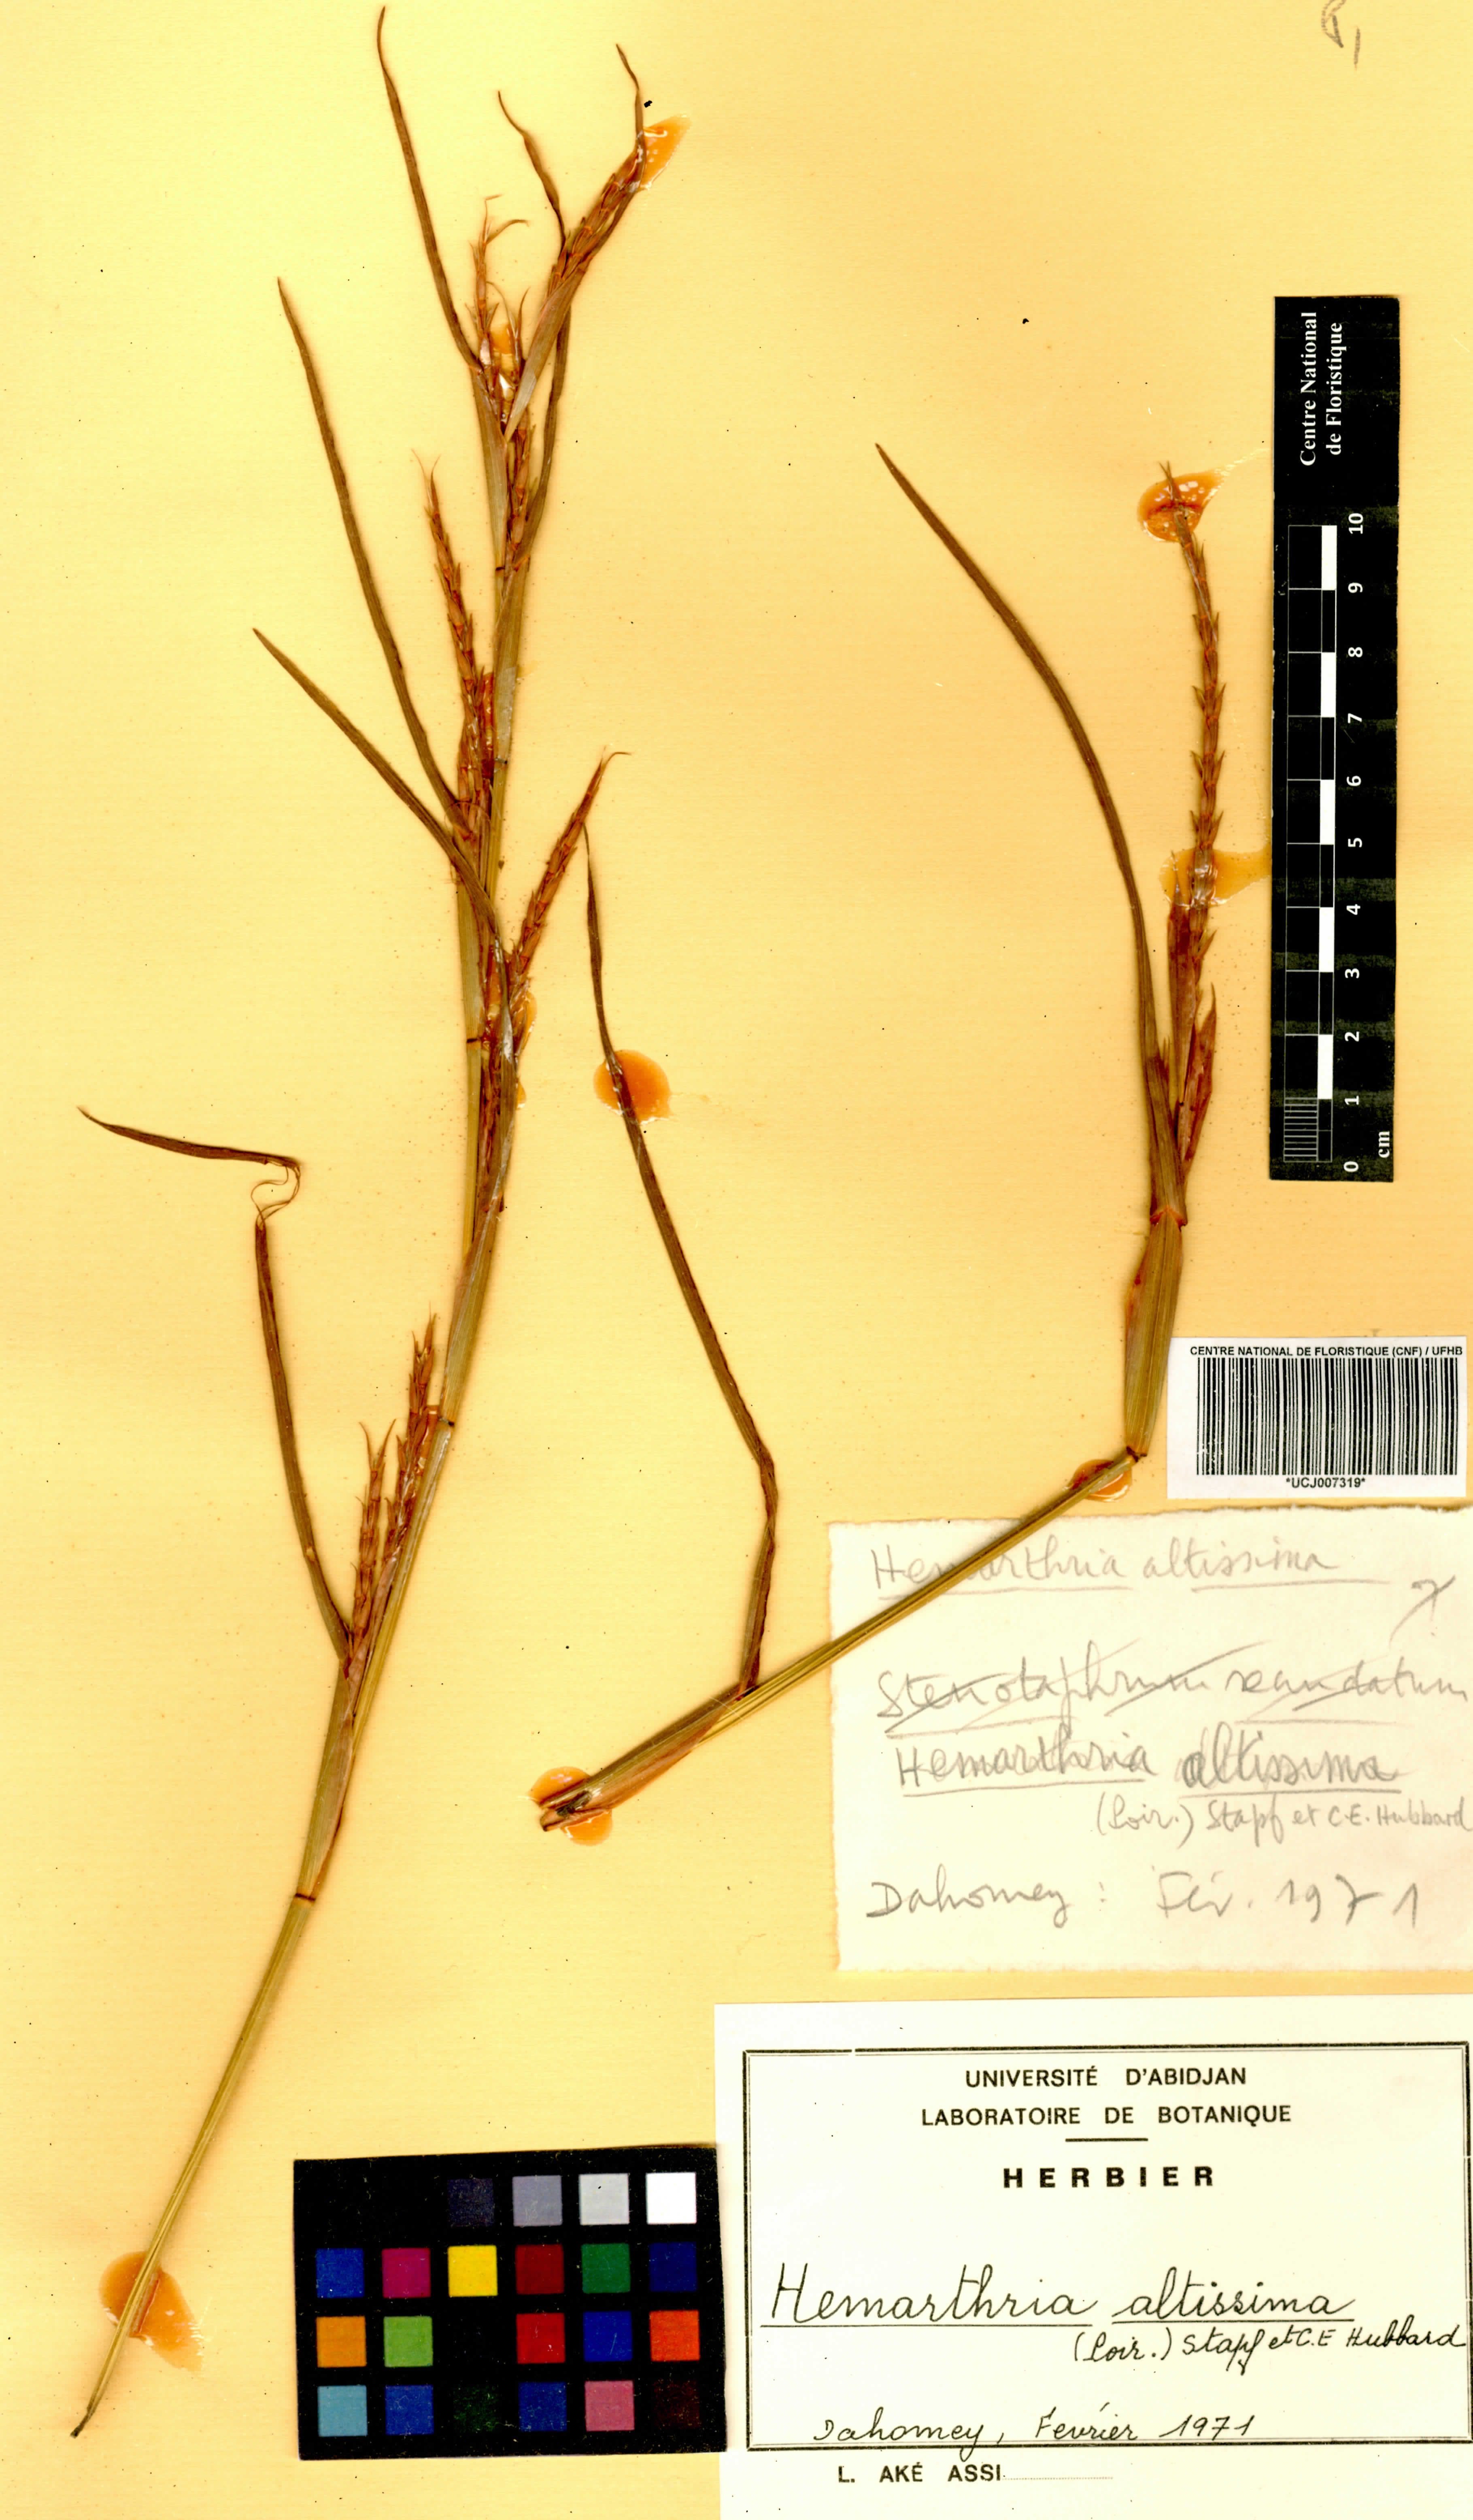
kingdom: Plantae
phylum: Tracheophyta
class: Liliopsida
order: Poales
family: Poaceae
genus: Hemarthria
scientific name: Hemarthria altissima
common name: African jointgrass
